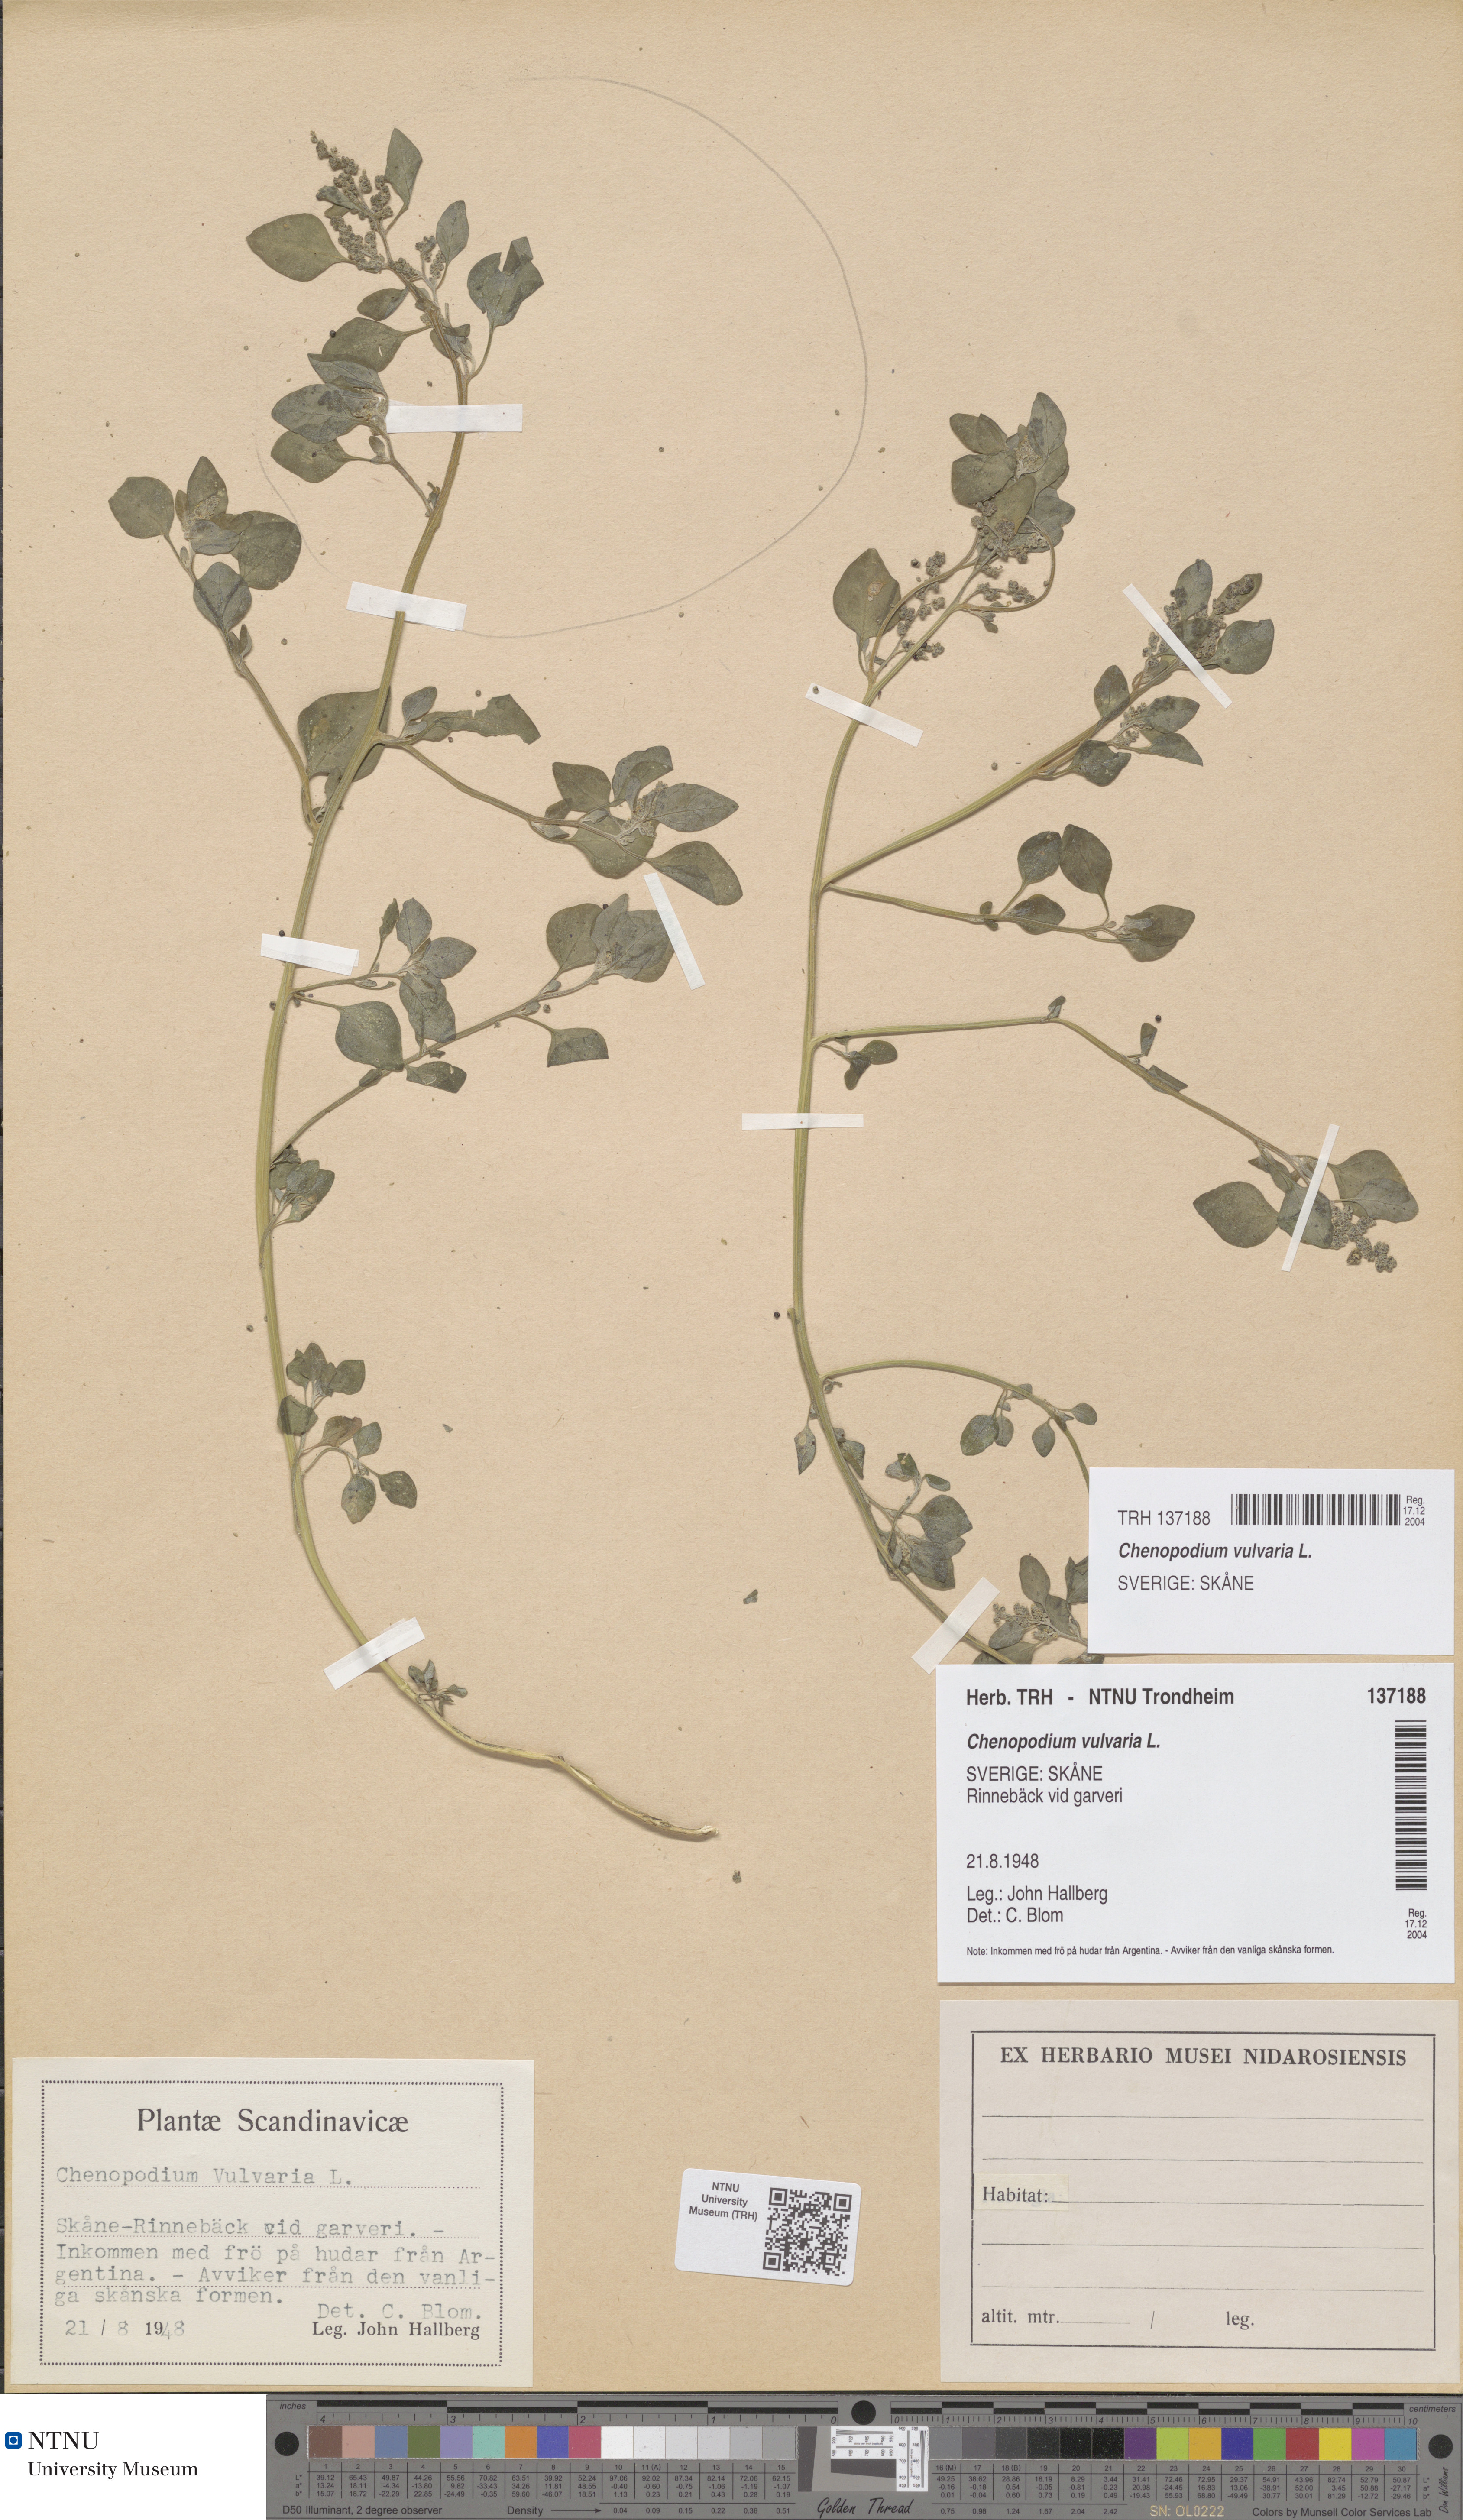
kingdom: Plantae
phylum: Tracheophyta
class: Magnoliopsida
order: Caryophyllales
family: Amaranthaceae
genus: Chenopodium
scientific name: Chenopodium vulvaria
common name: Stinking goosefoot
